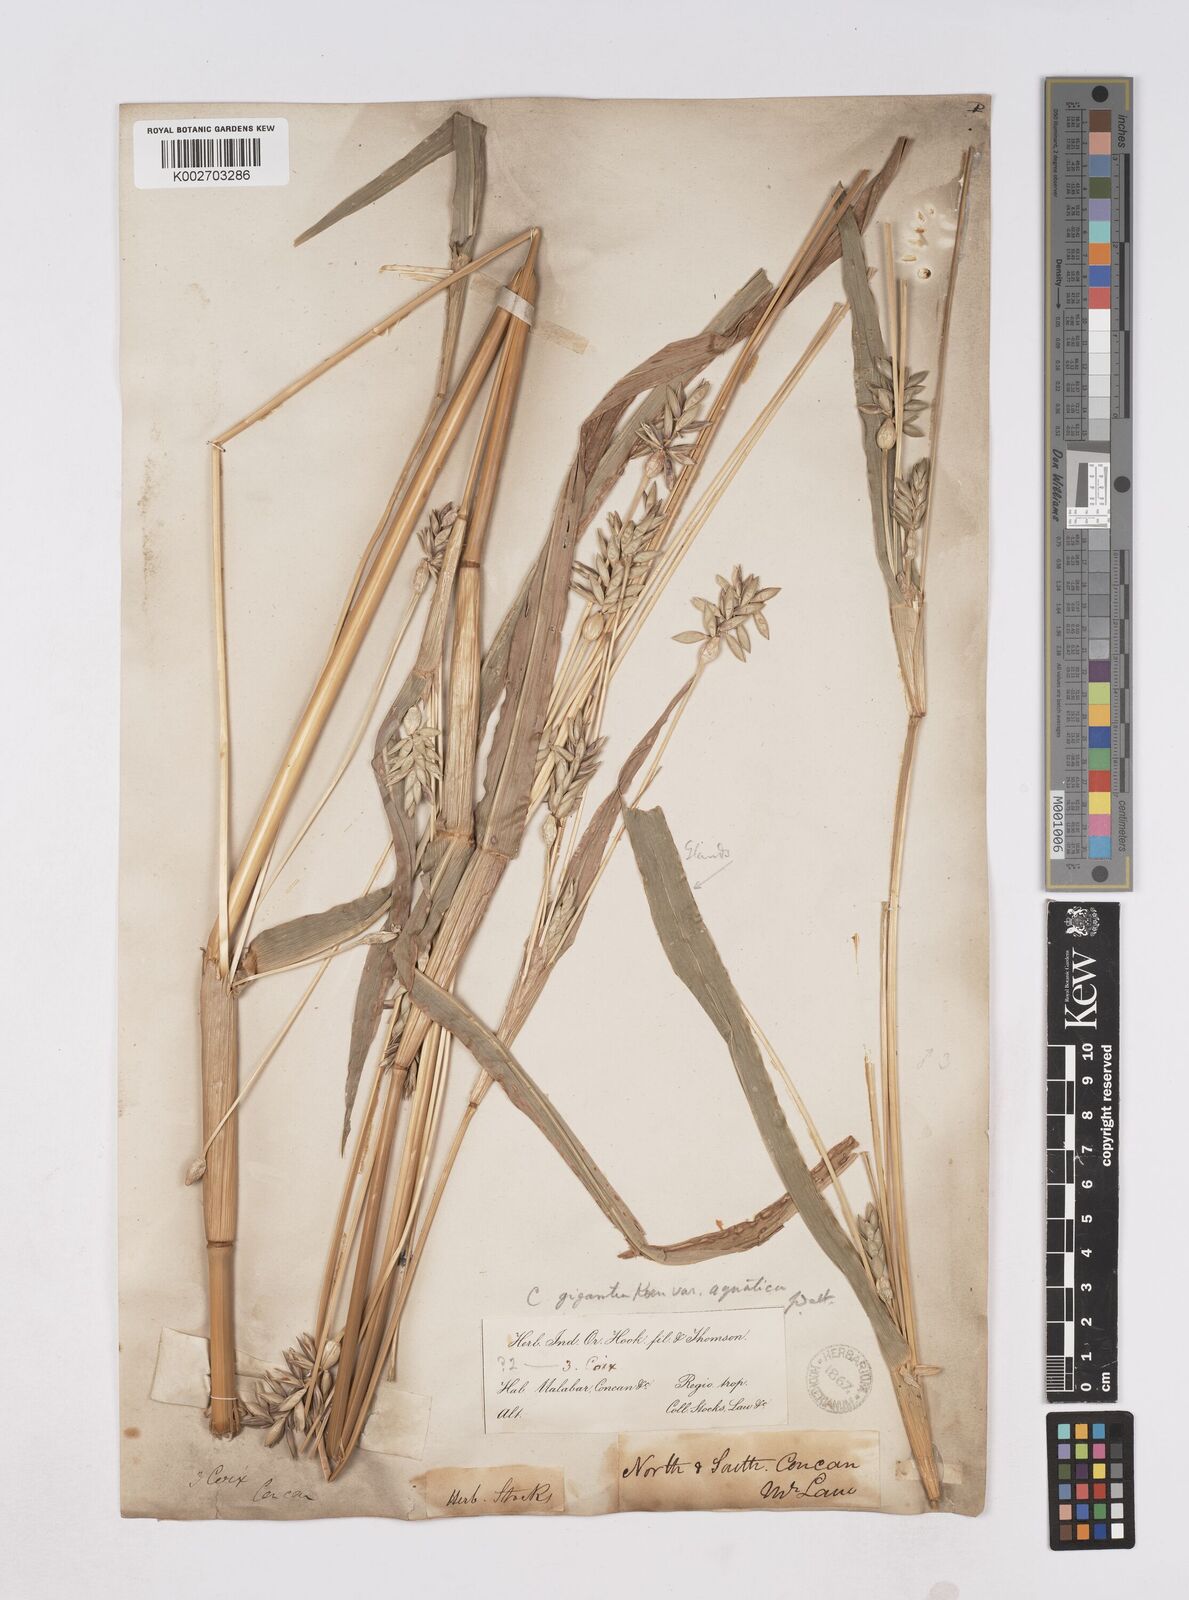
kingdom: Plantae
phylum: Tracheophyta
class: Liliopsida
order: Poales
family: Poaceae
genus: Coix
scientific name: Coix aquatica
